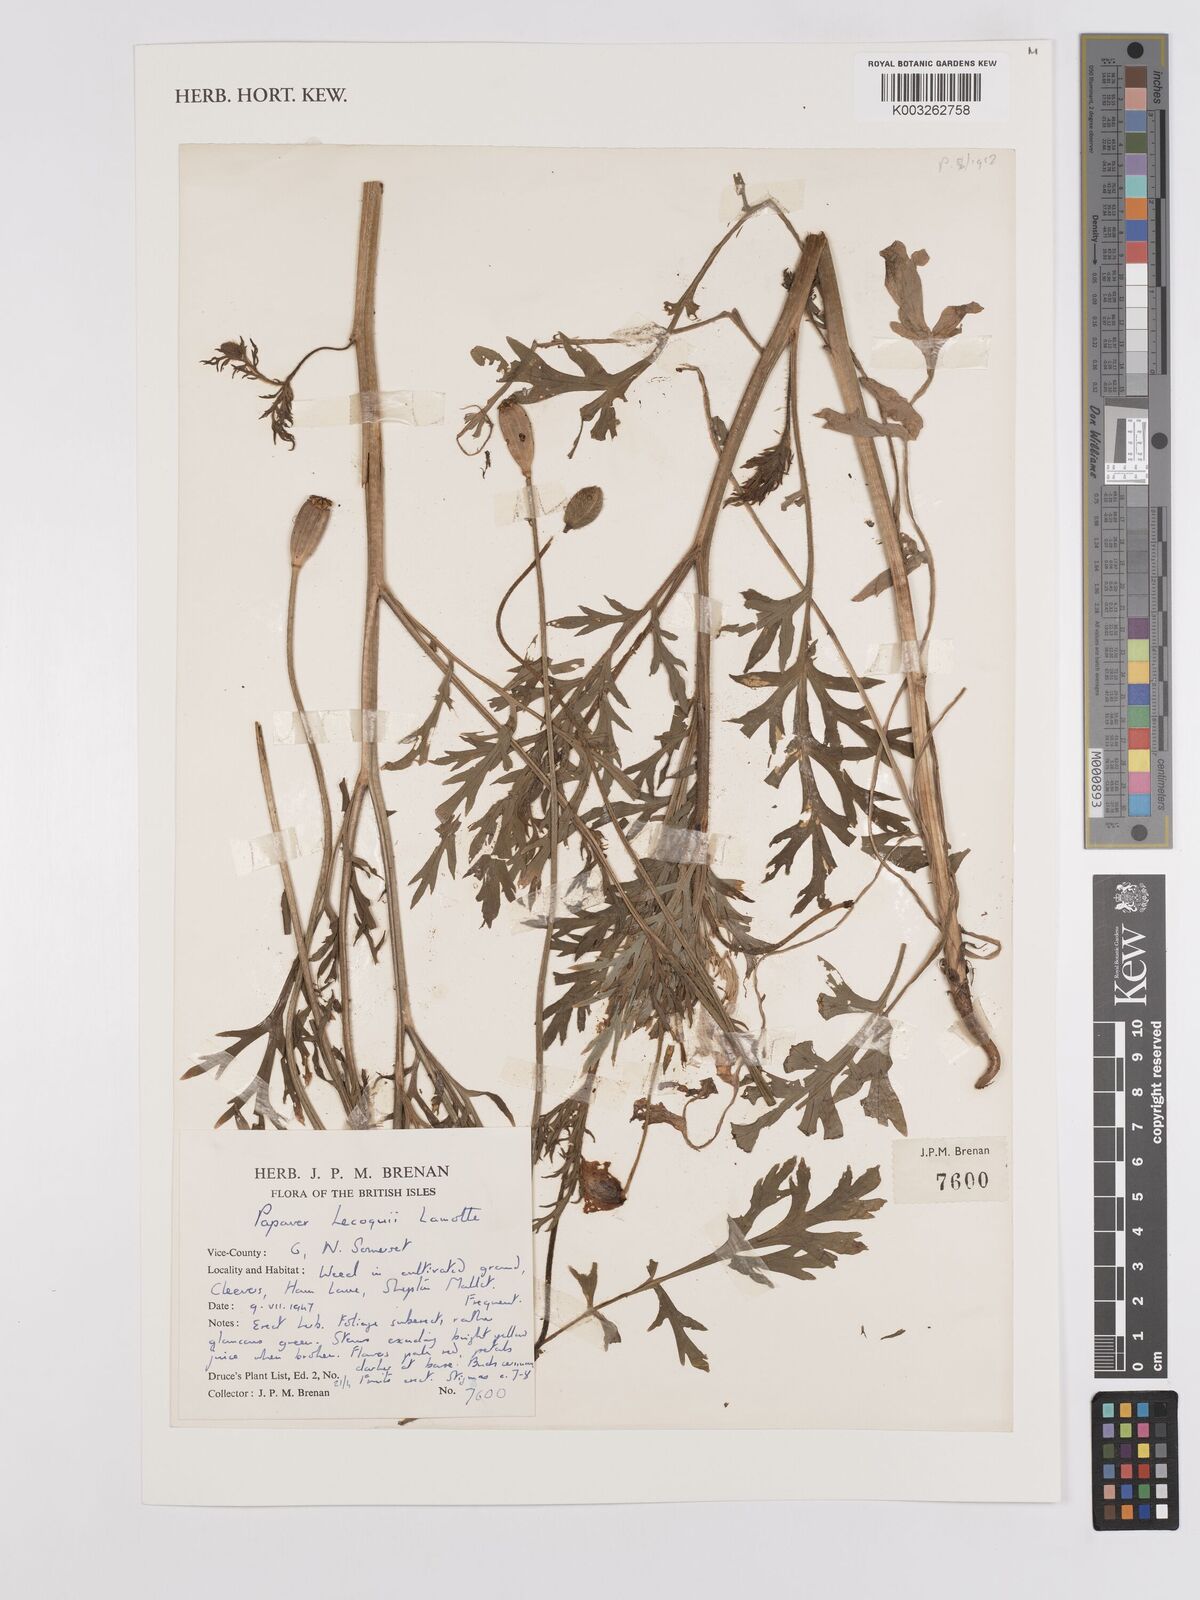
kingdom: Plantae
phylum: Tracheophyta
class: Magnoliopsida
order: Ranunculales
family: Papaveraceae
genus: Papaver
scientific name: Papaver lecoqii
